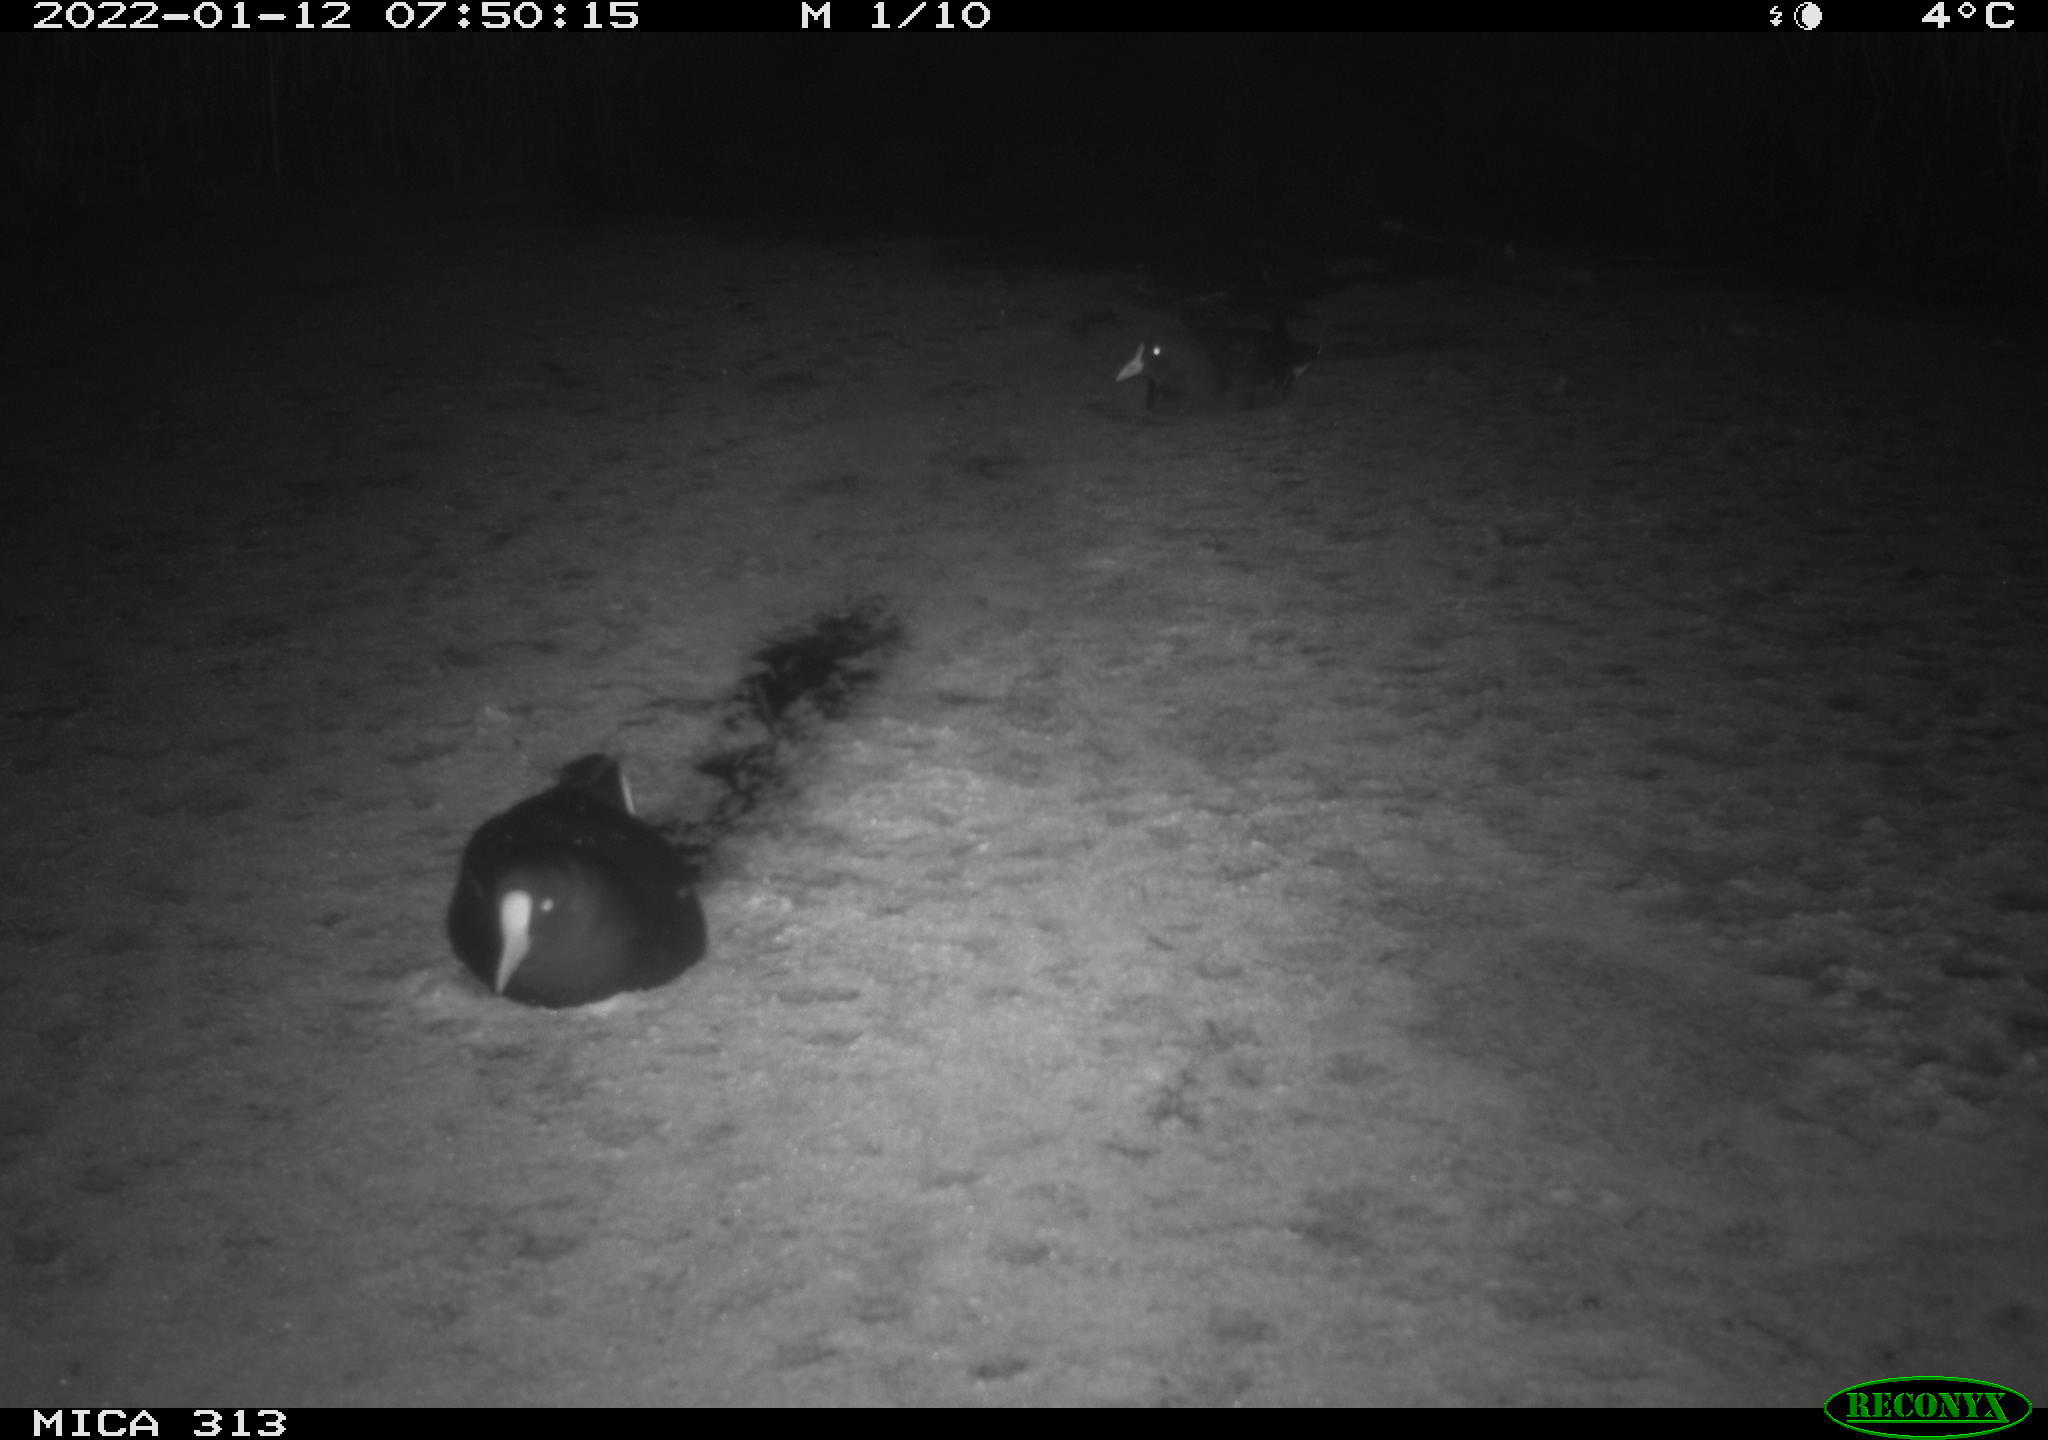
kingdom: Animalia
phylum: Chordata
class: Aves
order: Gruiformes
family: Rallidae
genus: Gallinula
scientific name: Gallinula chloropus
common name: Common moorhen
